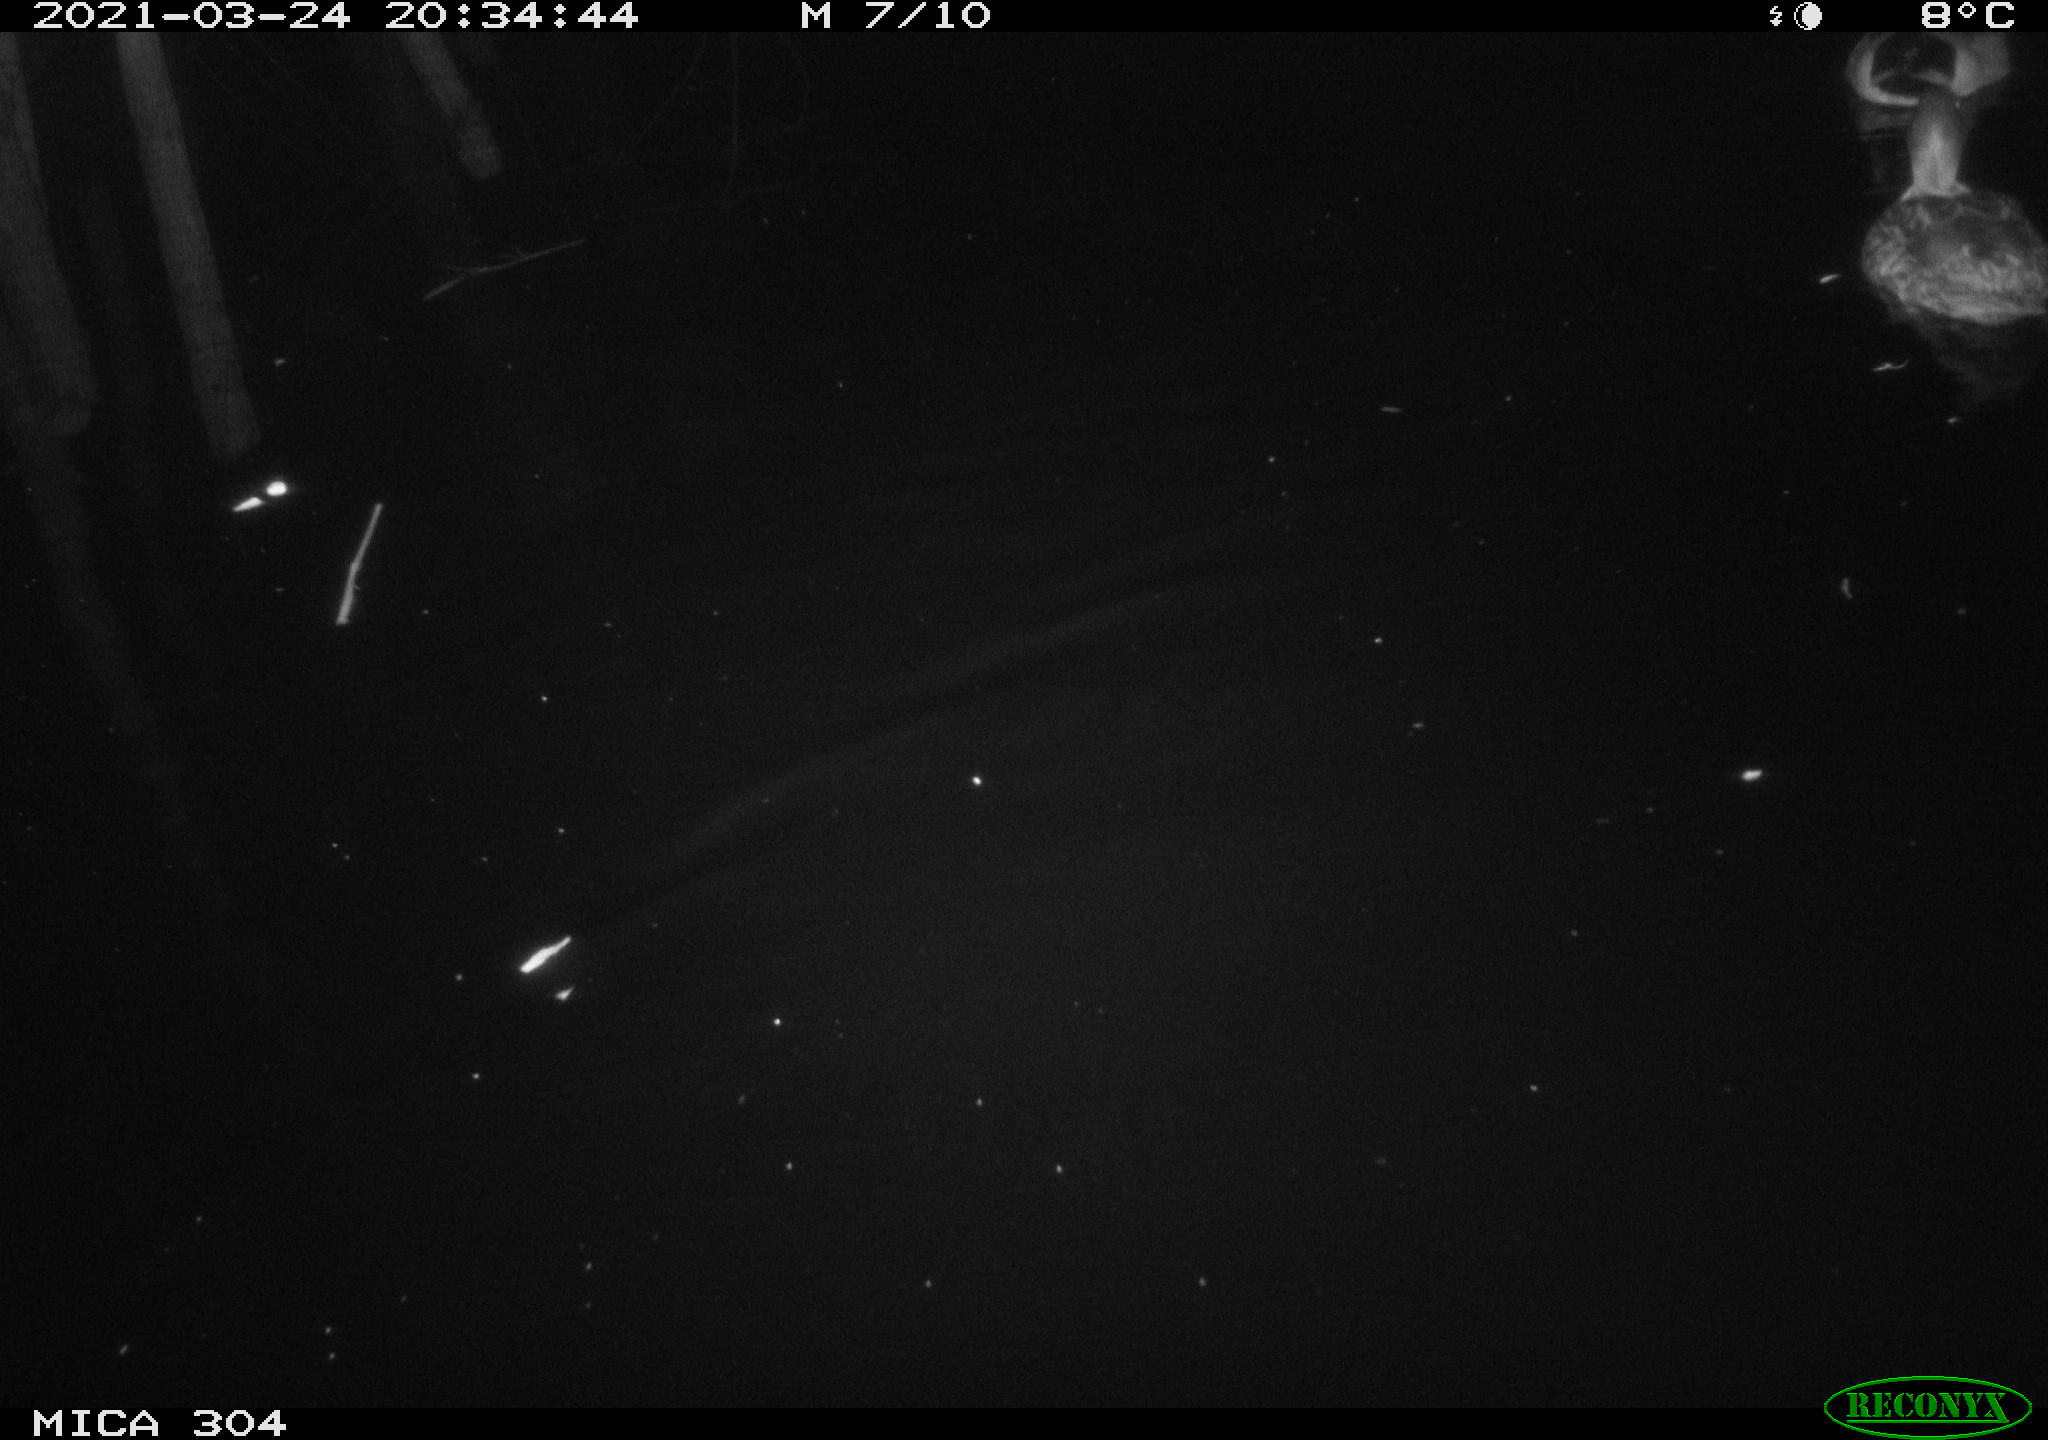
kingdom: Animalia
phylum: Chordata
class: Aves
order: Anseriformes
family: Anatidae
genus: Anas
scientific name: Anas platyrhynchos
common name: Mallard
